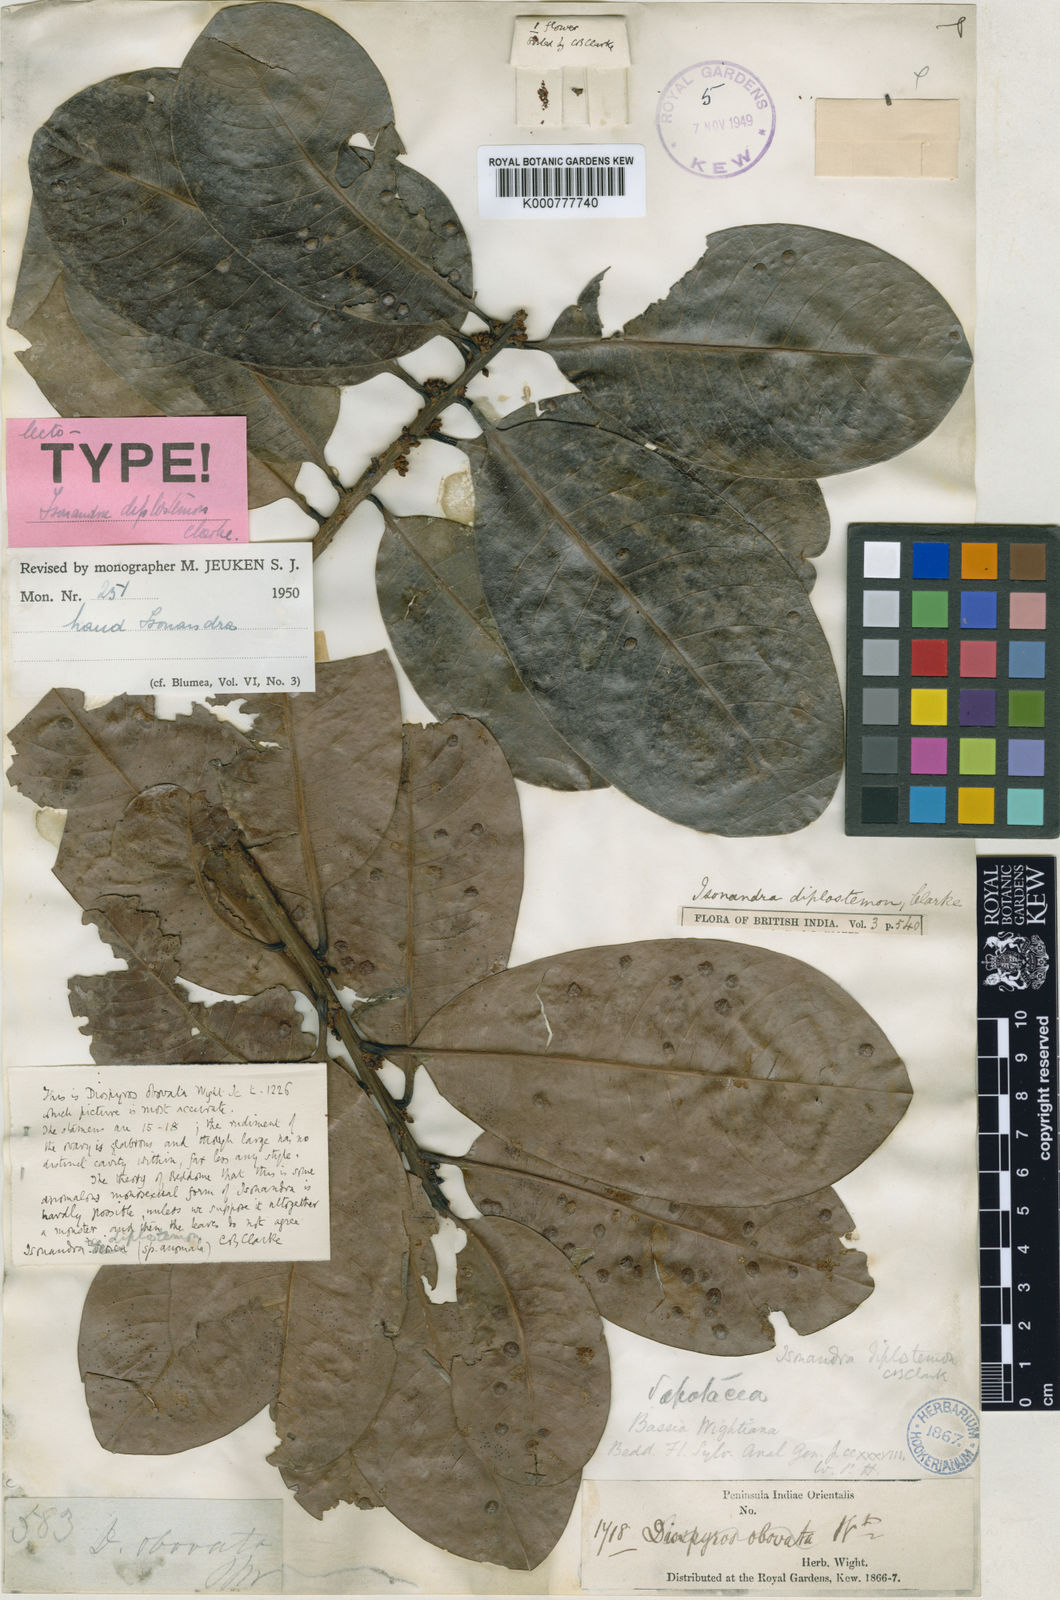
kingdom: Plantae
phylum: Tracheophyta
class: Magnoliopsida
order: Ericales
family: Sapotaceae
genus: Madhuca
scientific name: Madhuca diplostemon
